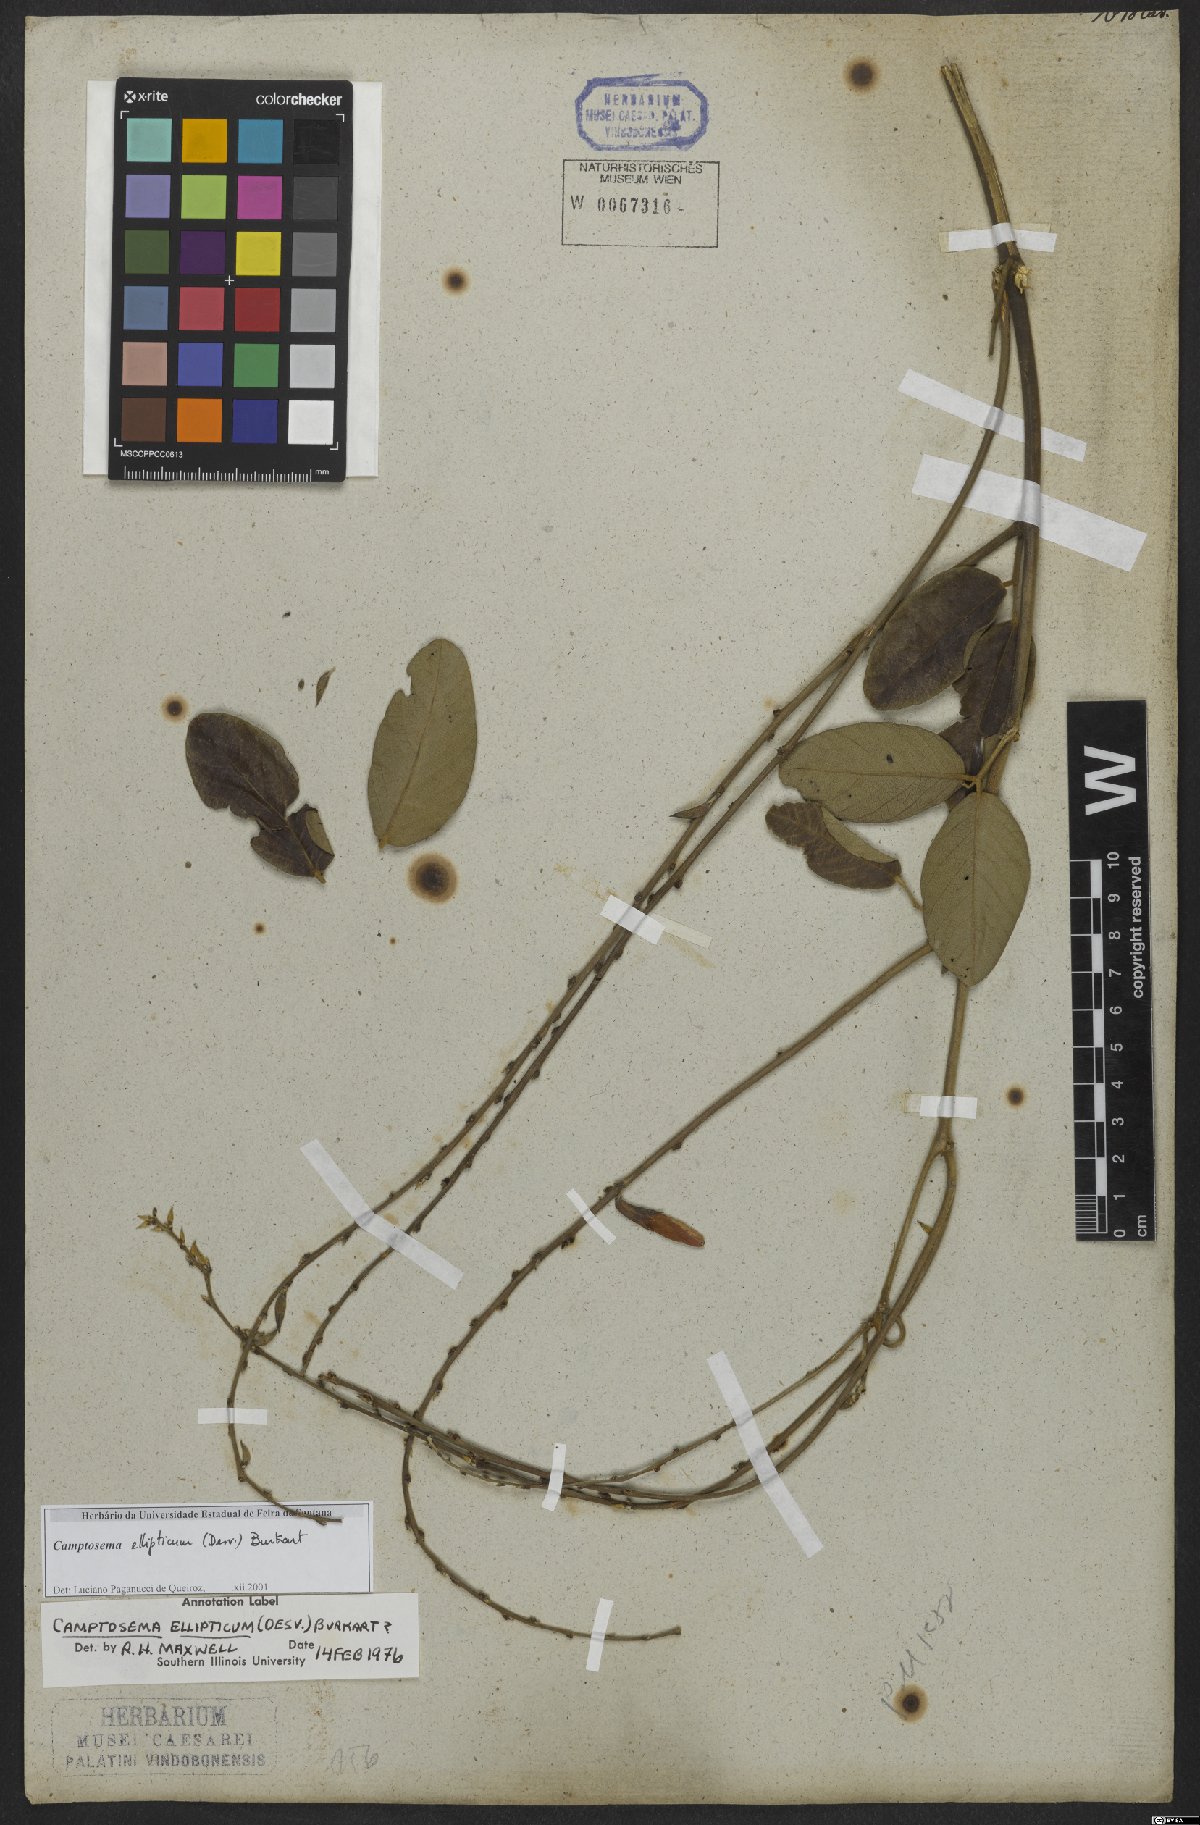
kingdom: Plantae
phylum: Tracheophyta
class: Magnoliopsida
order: Fabales
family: Fabaceae
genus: Cerradicola
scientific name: Cerradicola elliptica
